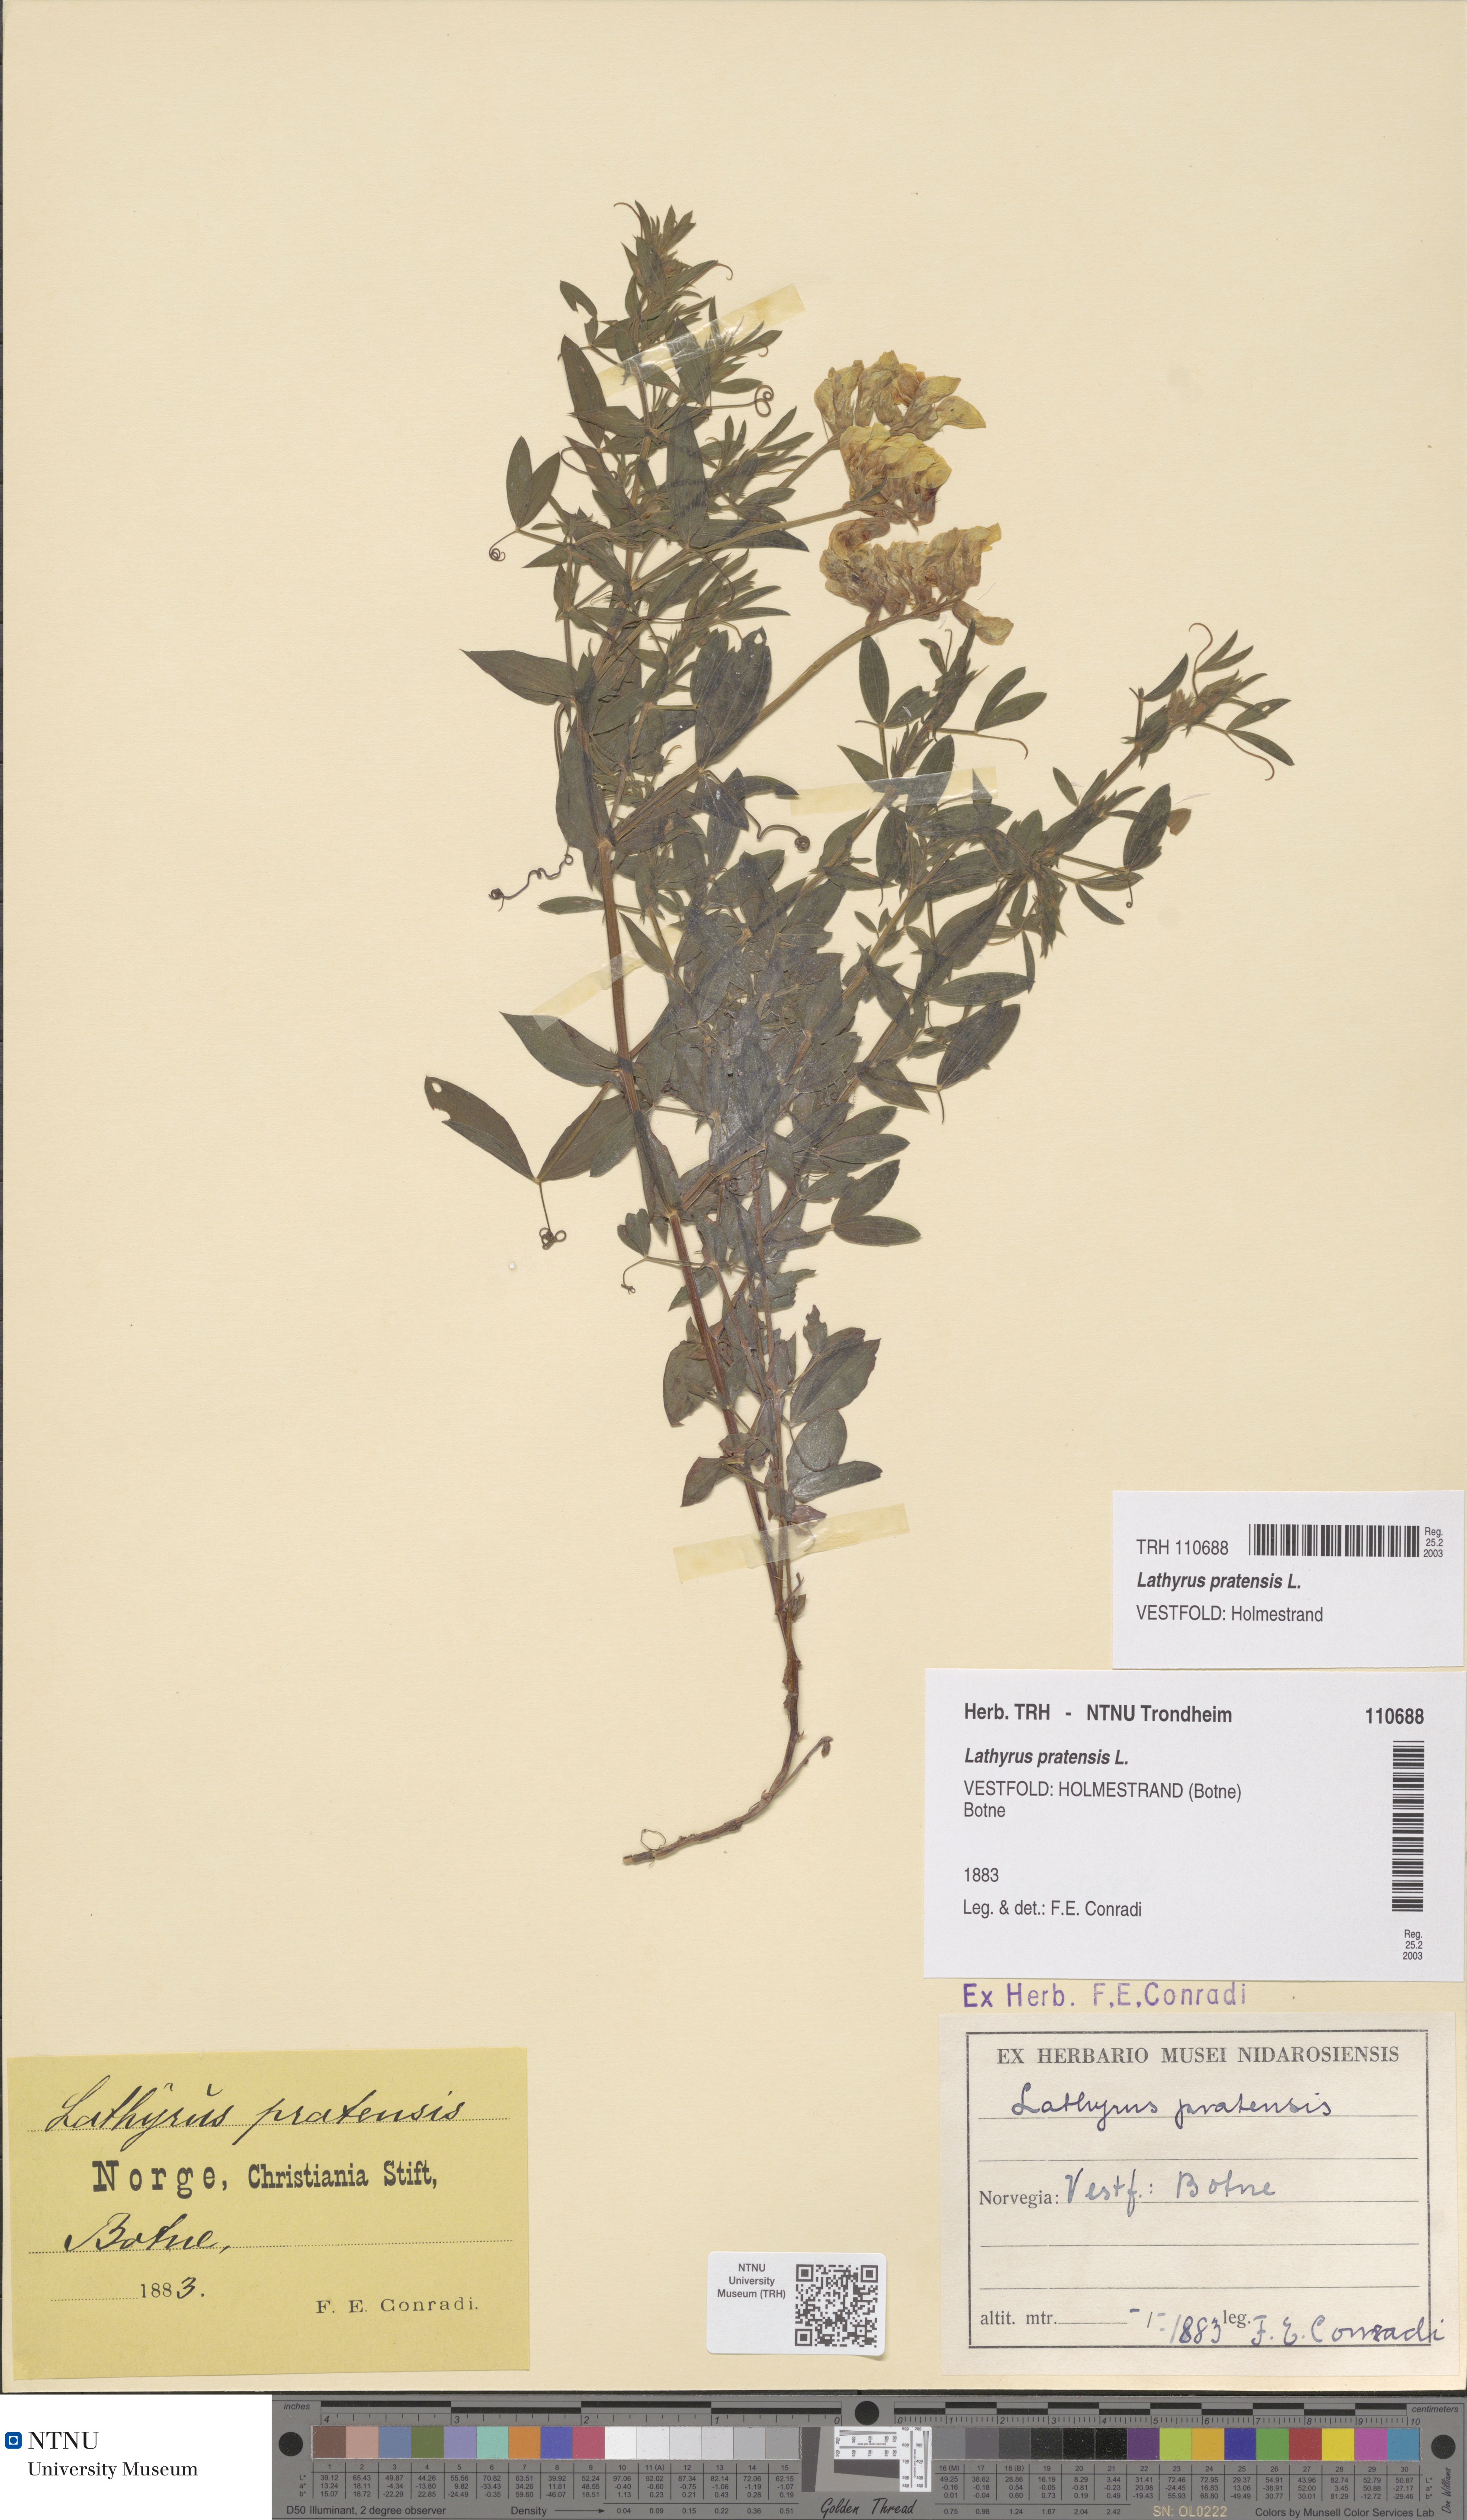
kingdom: Plantae
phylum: Tracheophyta
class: Magnoliopsida
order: Fabales
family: Fabaceae
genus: Lathyrus
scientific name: Lathyrus pratensis
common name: Meadow vetchling
